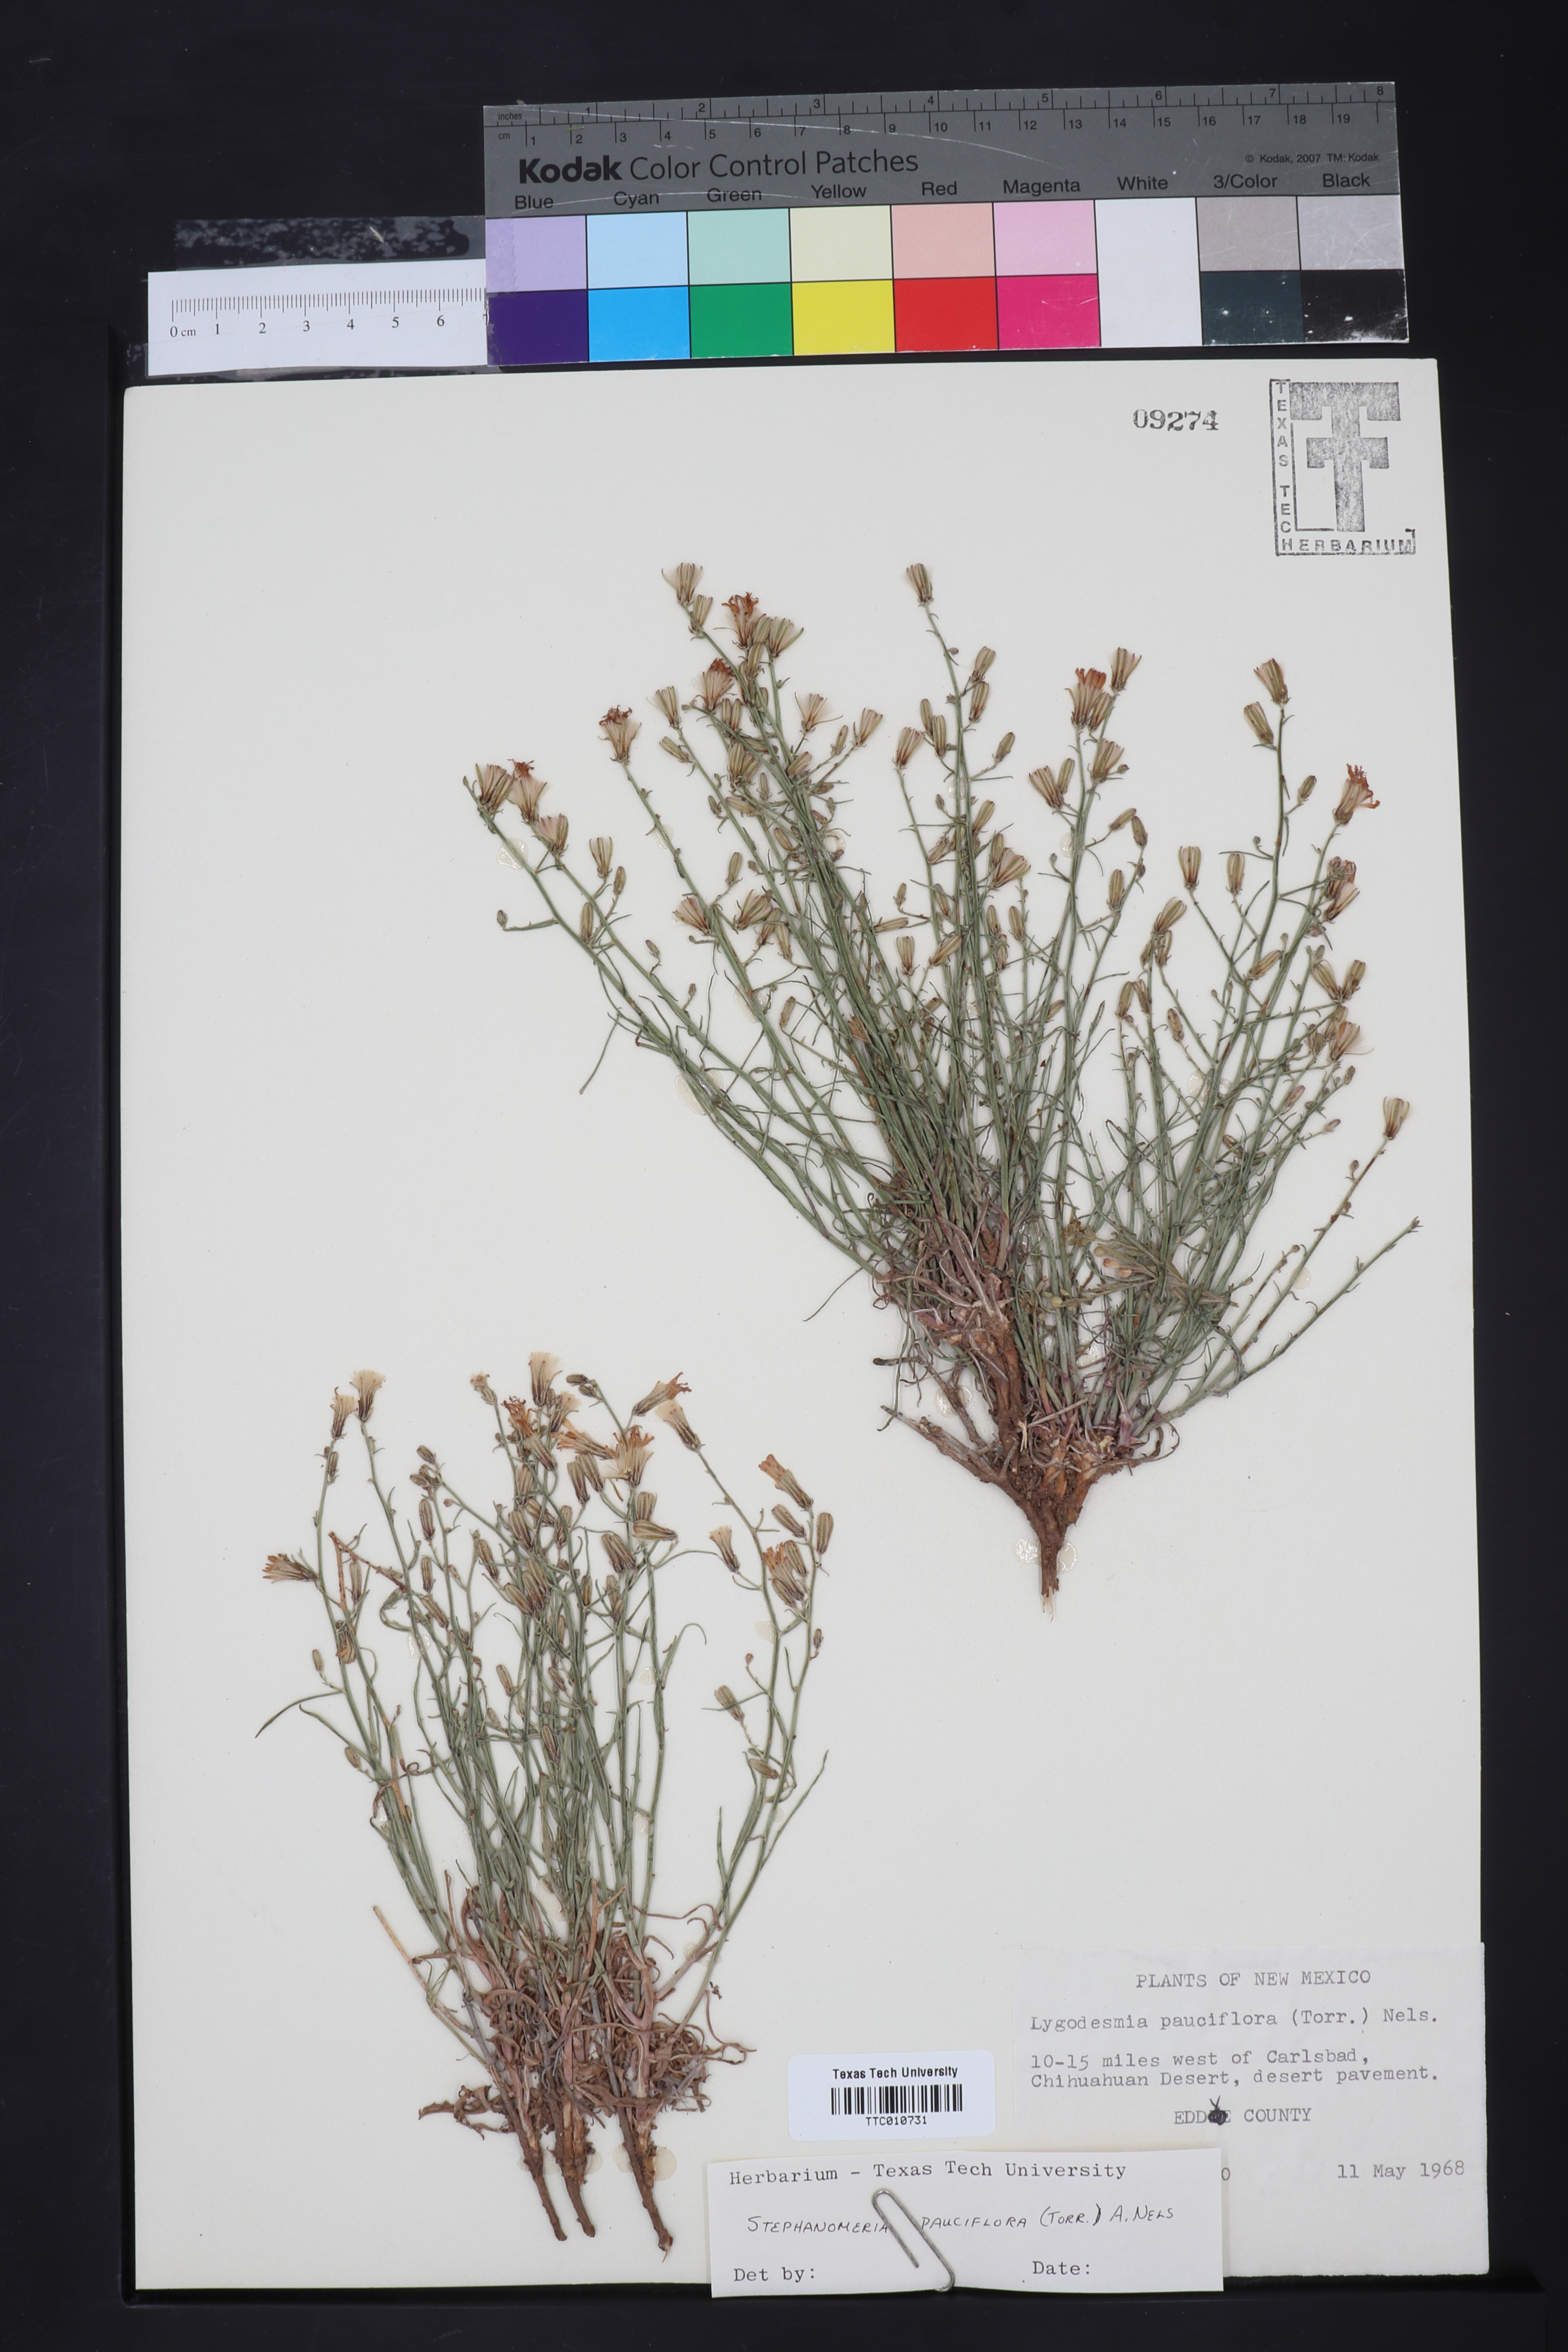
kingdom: Plantae
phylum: Tracheophyta
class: Magnoliopsida
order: Asterales
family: Asteraceae
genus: Stephanomeria
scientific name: Stephanomeria pauciflora
